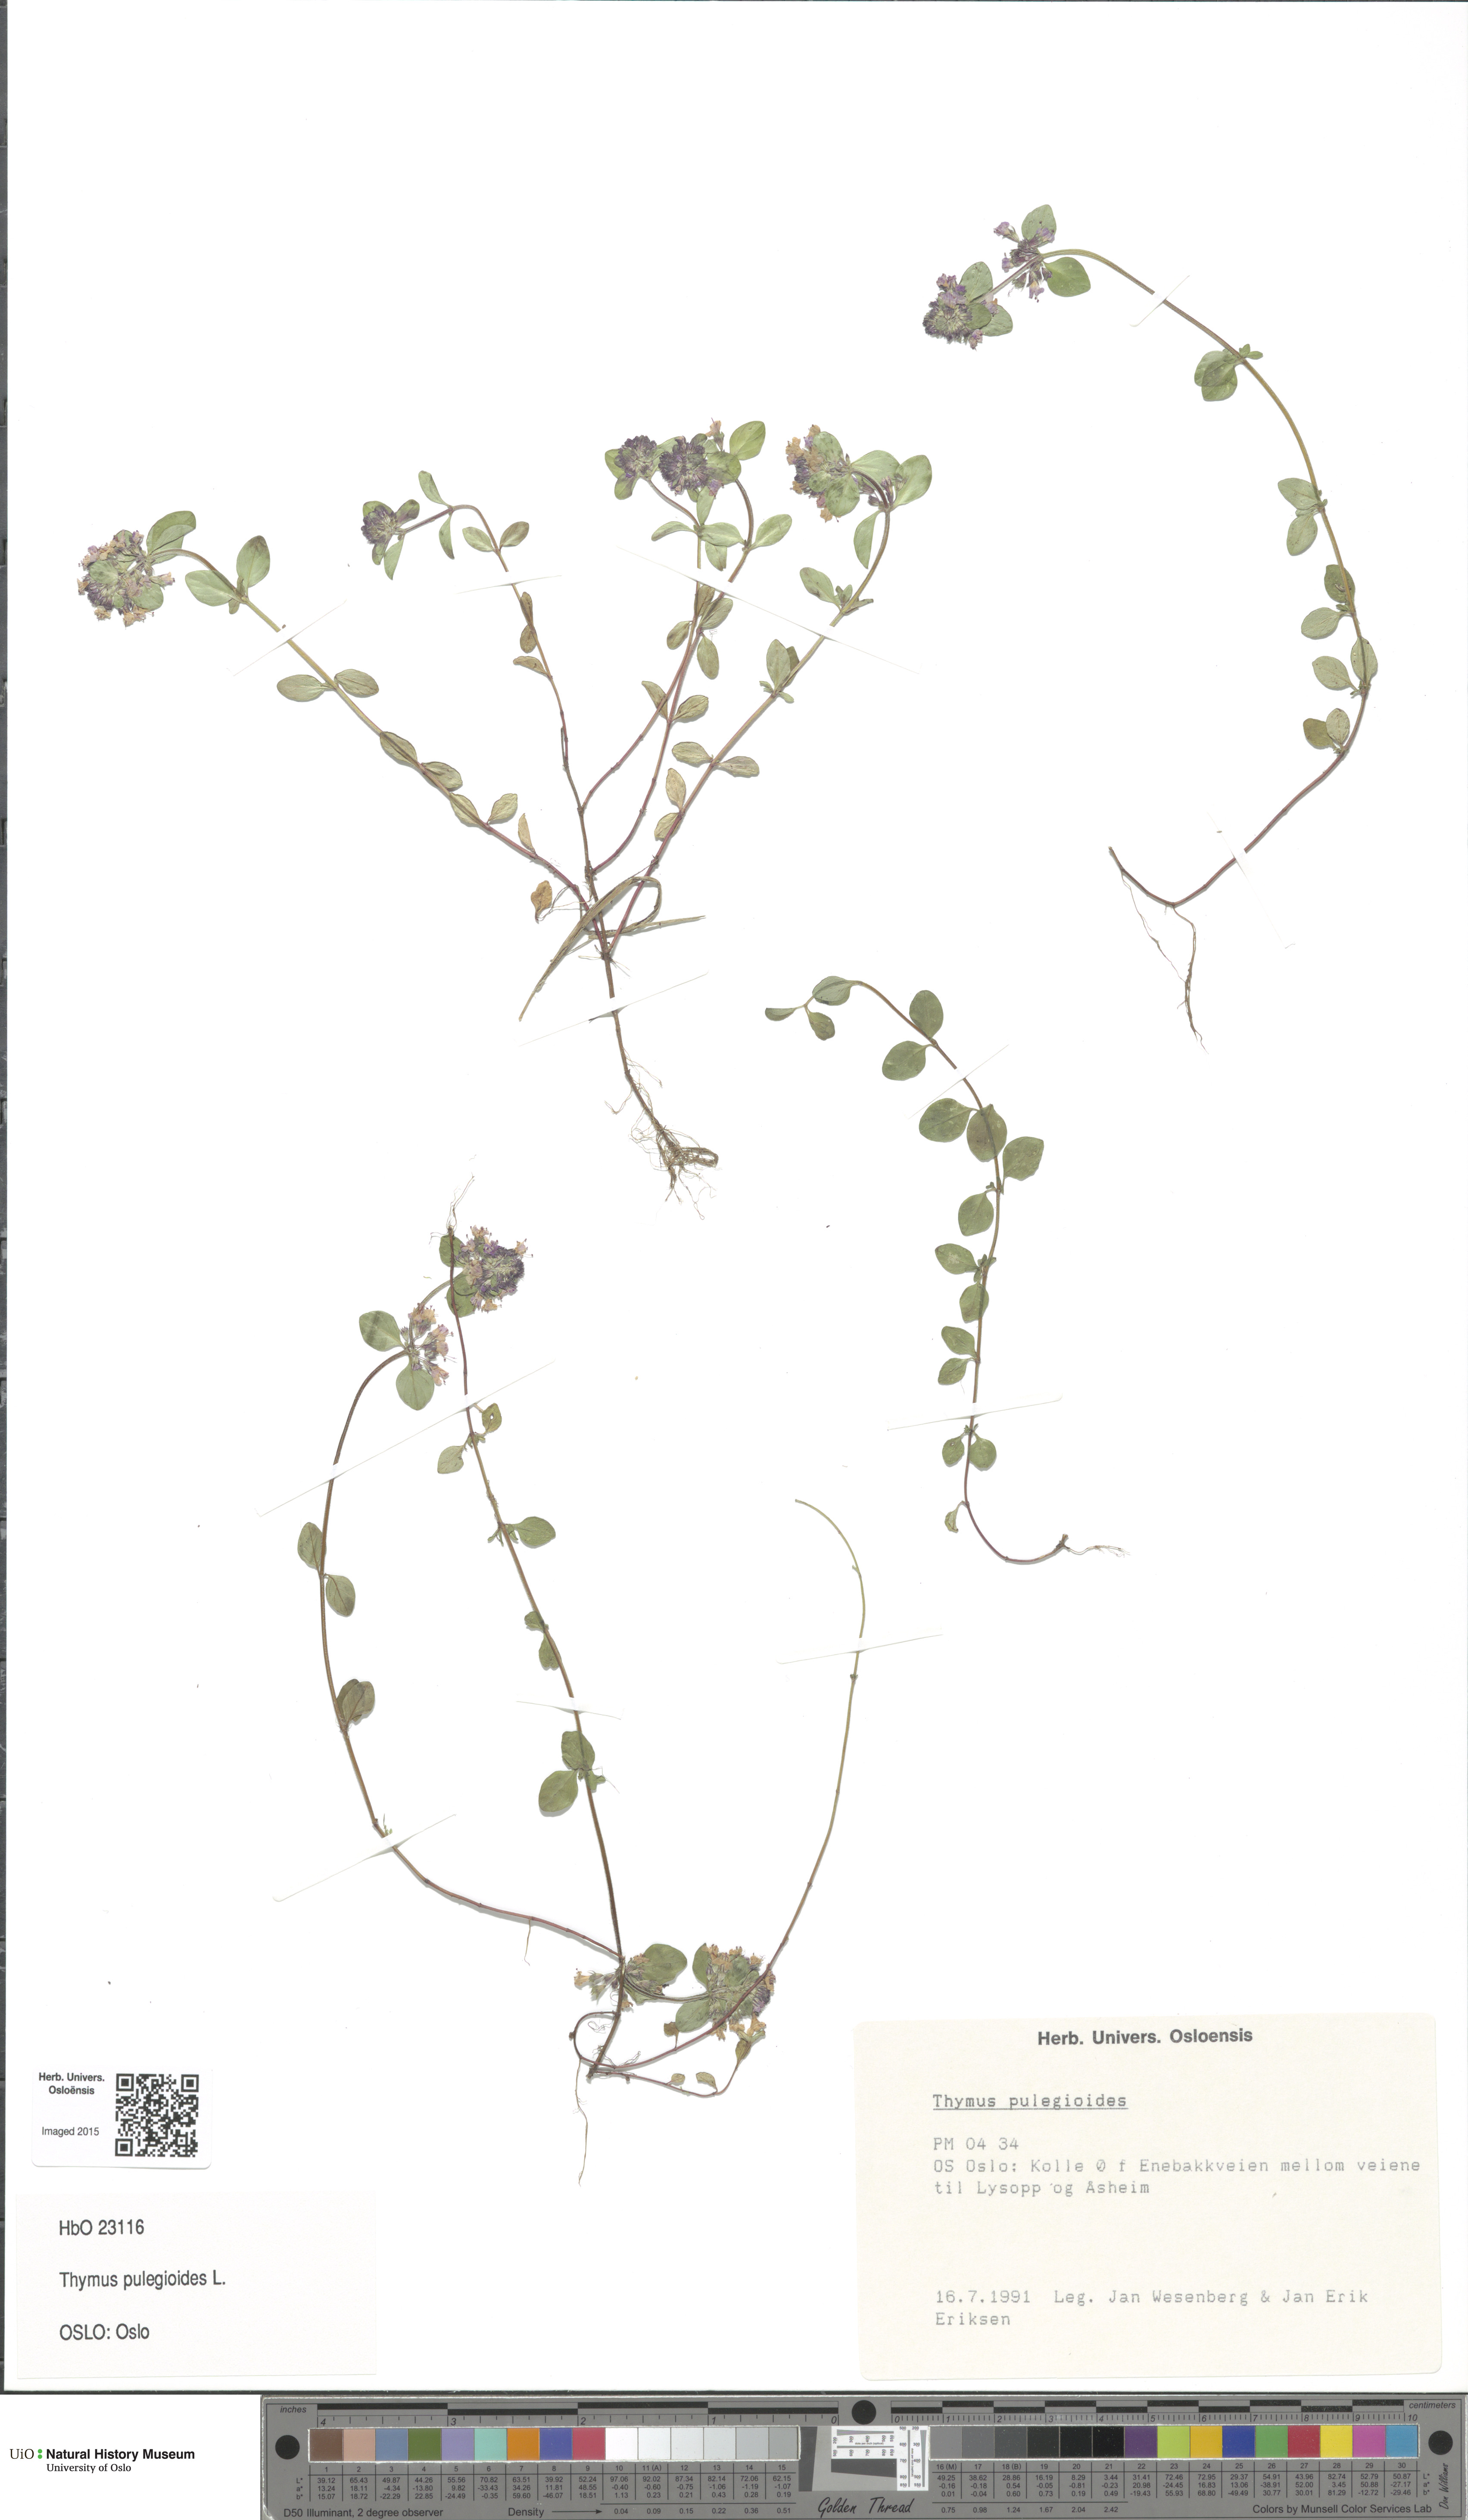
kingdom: Plantae
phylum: Tracheophyta
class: Magnoliopsida
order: Lamiales
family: Lamiaceae
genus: Thymus
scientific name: Thymus pulegioides
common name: Large thyme
